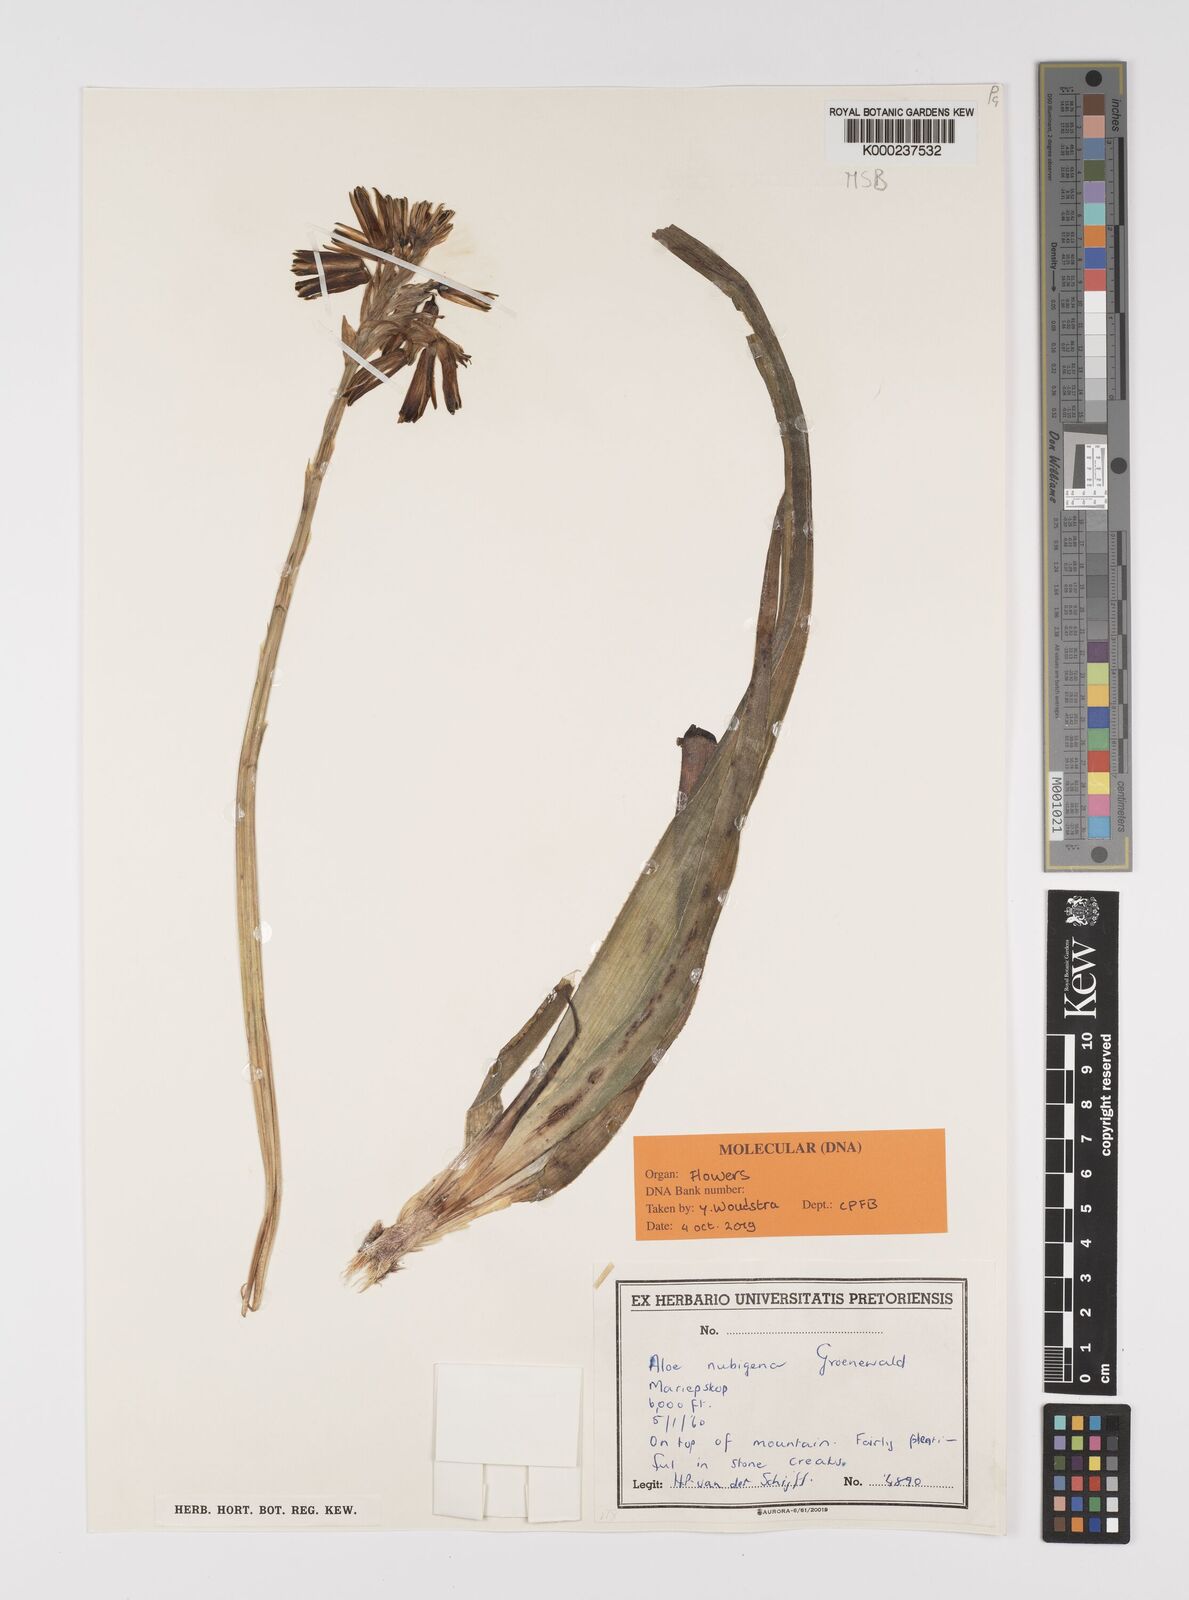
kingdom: Plantae
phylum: Tracheophyta
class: Liliopsida
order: Asparagales
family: Asphodelaceae
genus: Aloe
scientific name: Aloe nubigena
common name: Cloud-borne aloe
